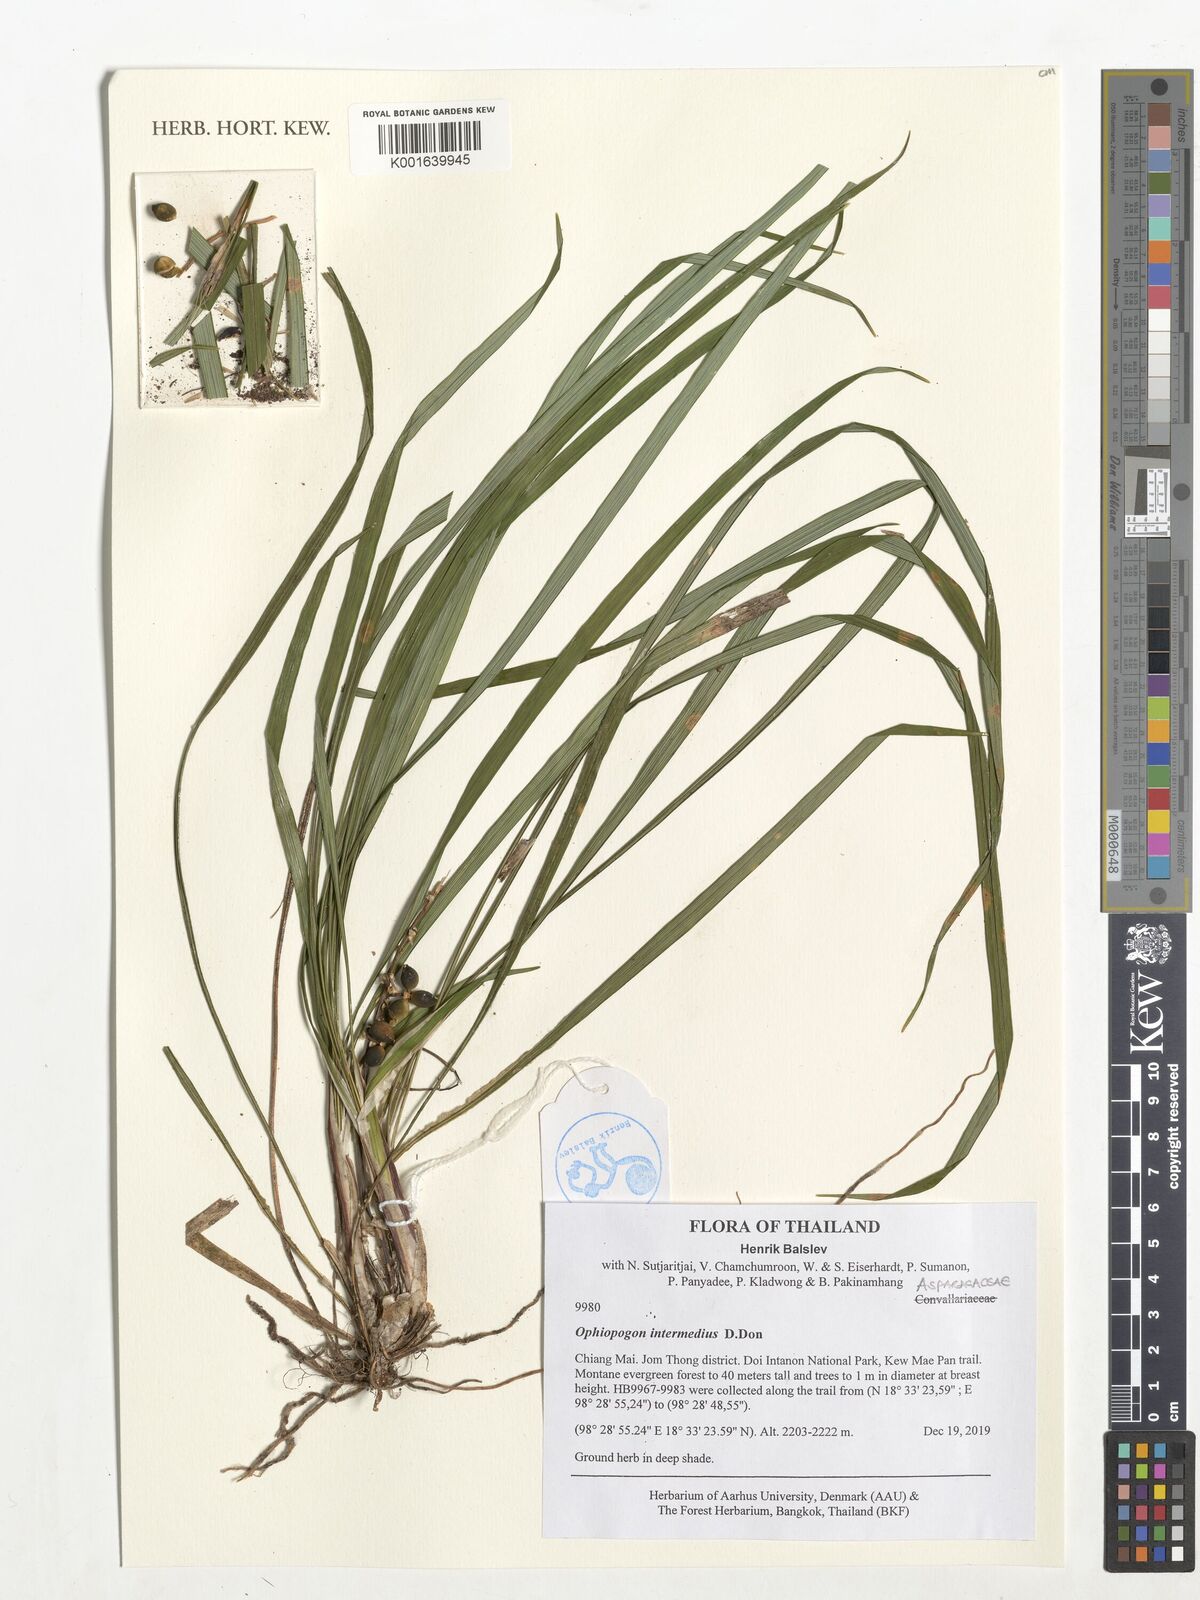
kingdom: Plantae
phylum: Tracheophyta
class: Liliopsida
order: Asparagales
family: Asparagaceae
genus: Ophiopogon
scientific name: Ophiopogon intermedius
